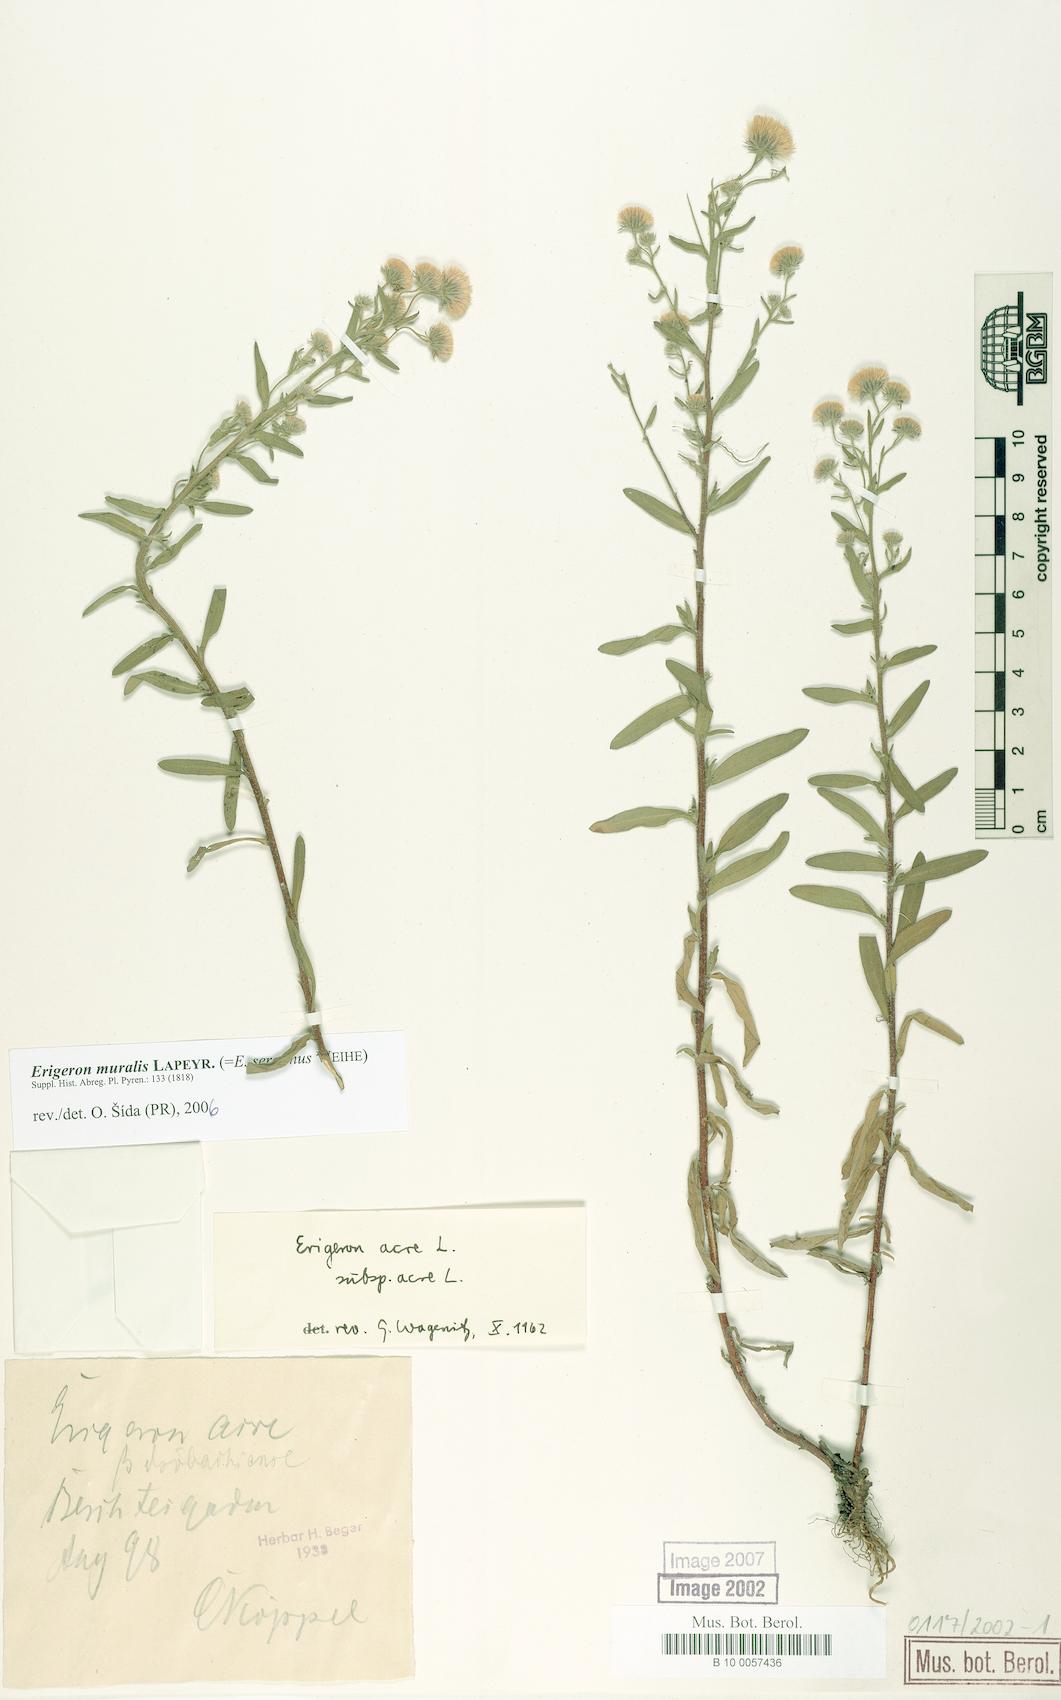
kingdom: Plantae
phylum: Tracheophyta
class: Magnoliopsida
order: Asterales
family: Asteraceae
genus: Erigeron
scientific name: Erigeron muralis
